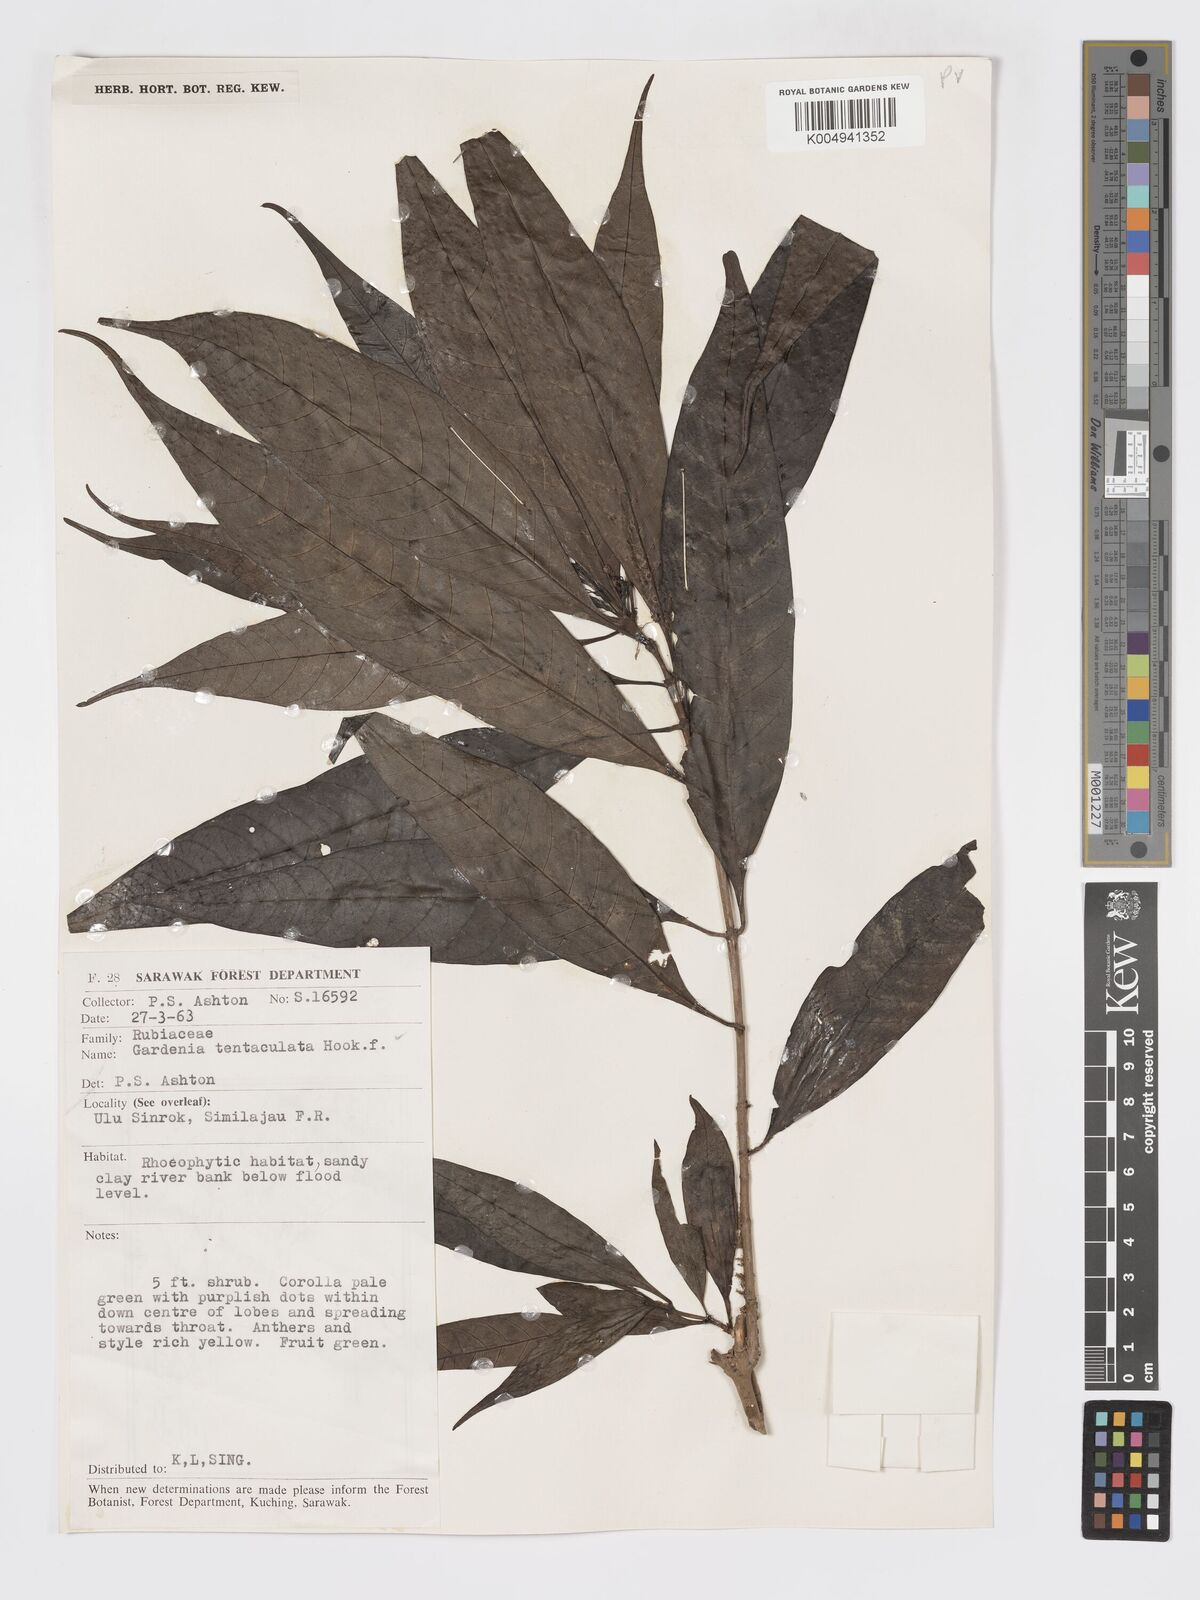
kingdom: Plantae
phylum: Tracheophyta
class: Magnoliopsida
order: Gentianales
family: Rubiaceae
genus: Kailarsenia
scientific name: Kailarsenia tentaculata
